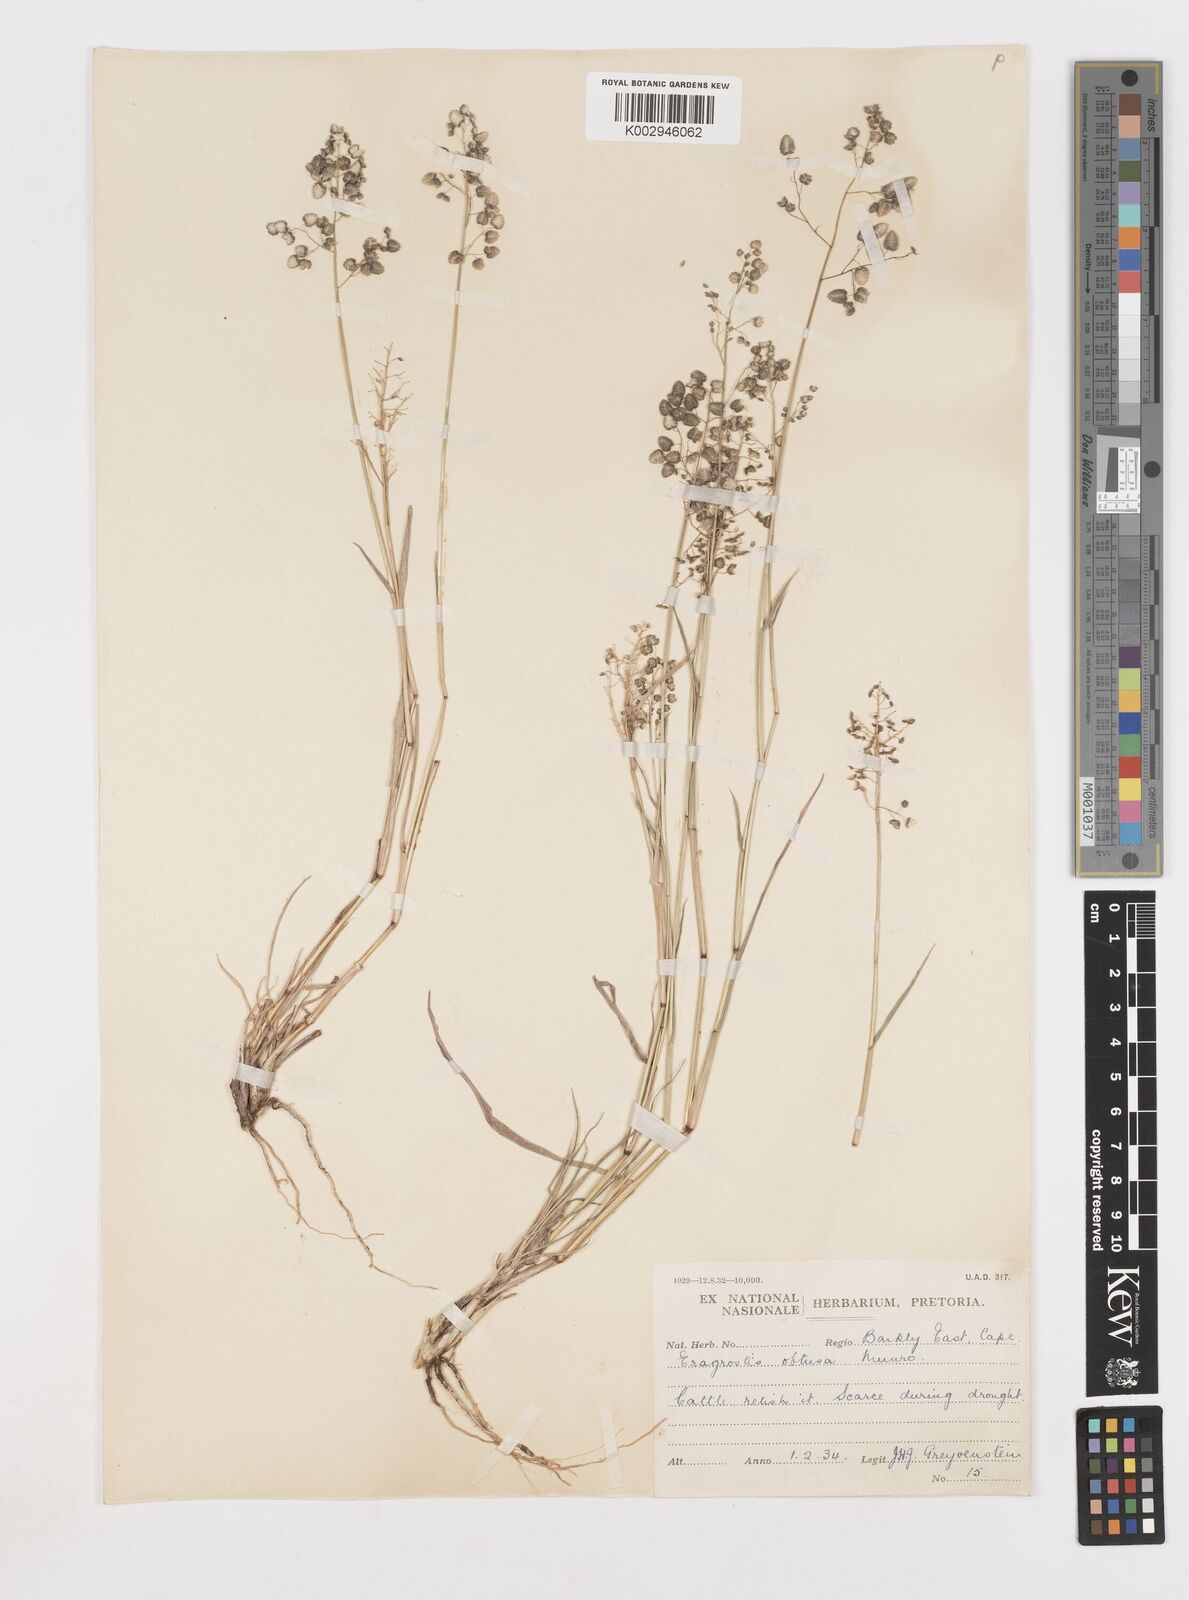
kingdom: Plantae
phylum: Tracheophyta
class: Liliopsida
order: Poales
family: Poaceae
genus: Eragrostis
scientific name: Eragrostis obtusa
